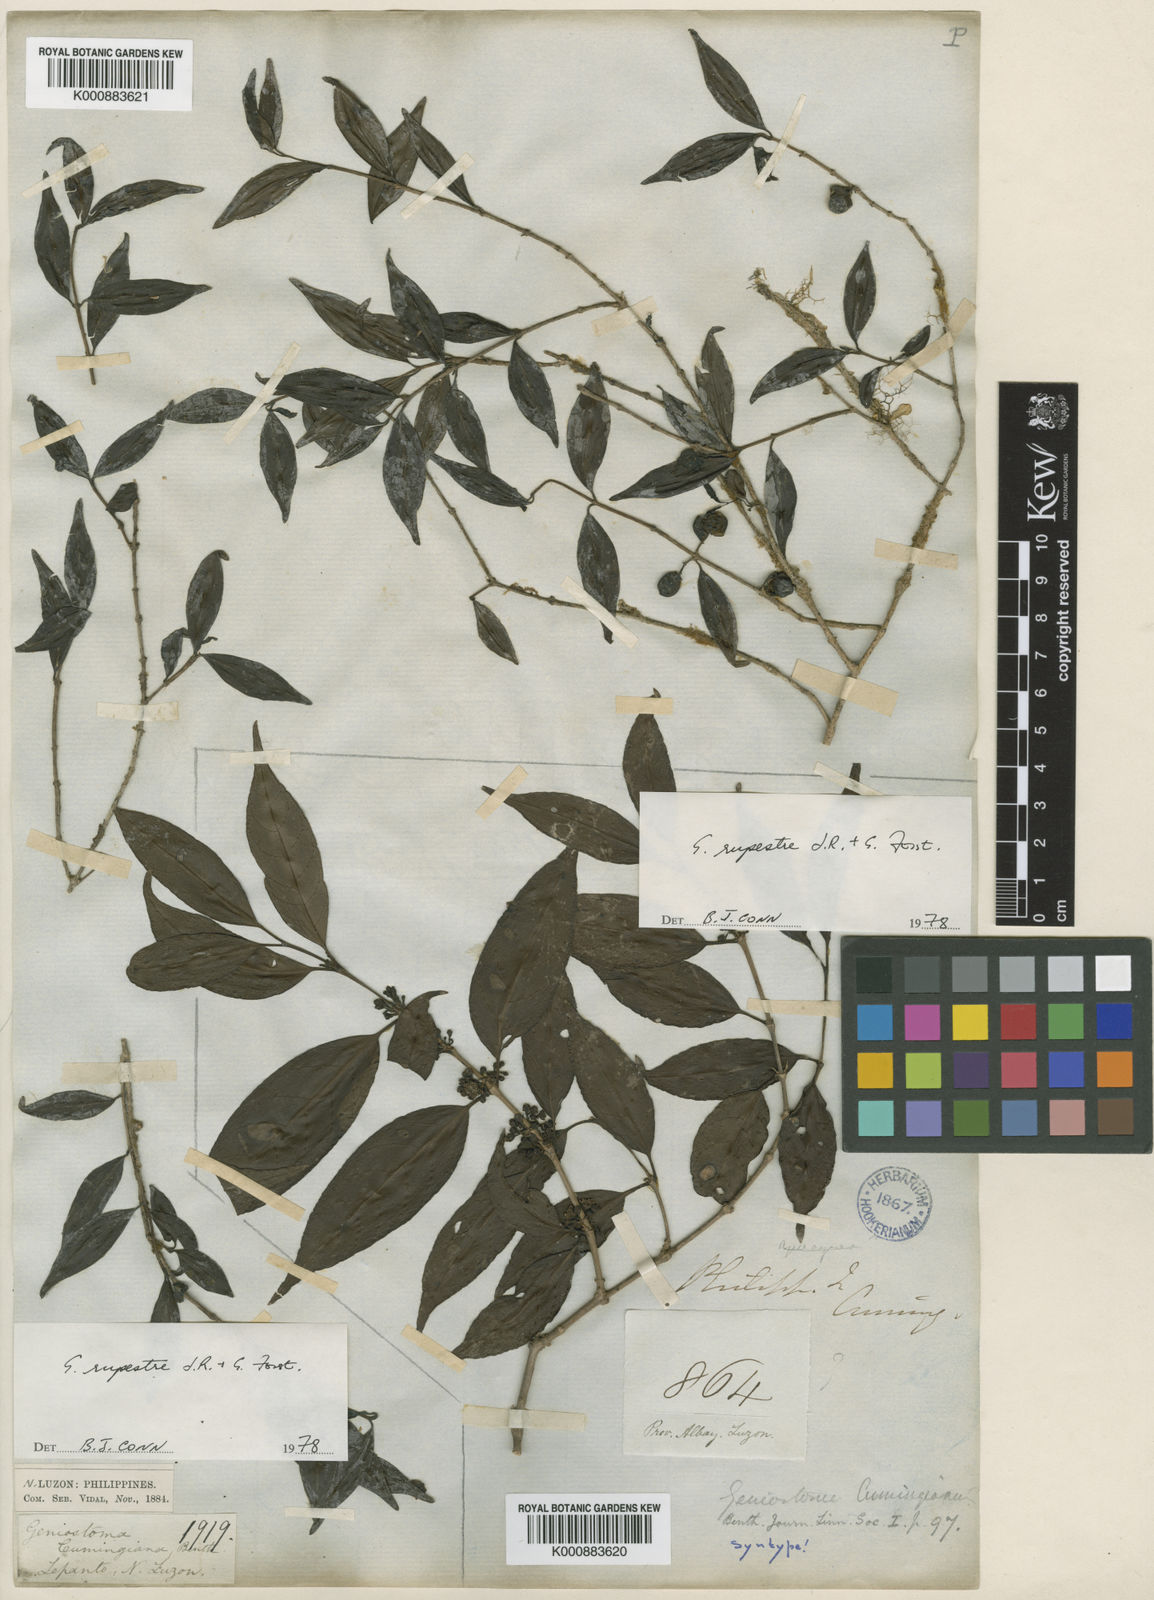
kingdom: Plantae
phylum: Tracheophyta
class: Magnoliopsida
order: Gentianales
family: Loganiaceae
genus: Geniostoma
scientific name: Geniostoma rupestre
